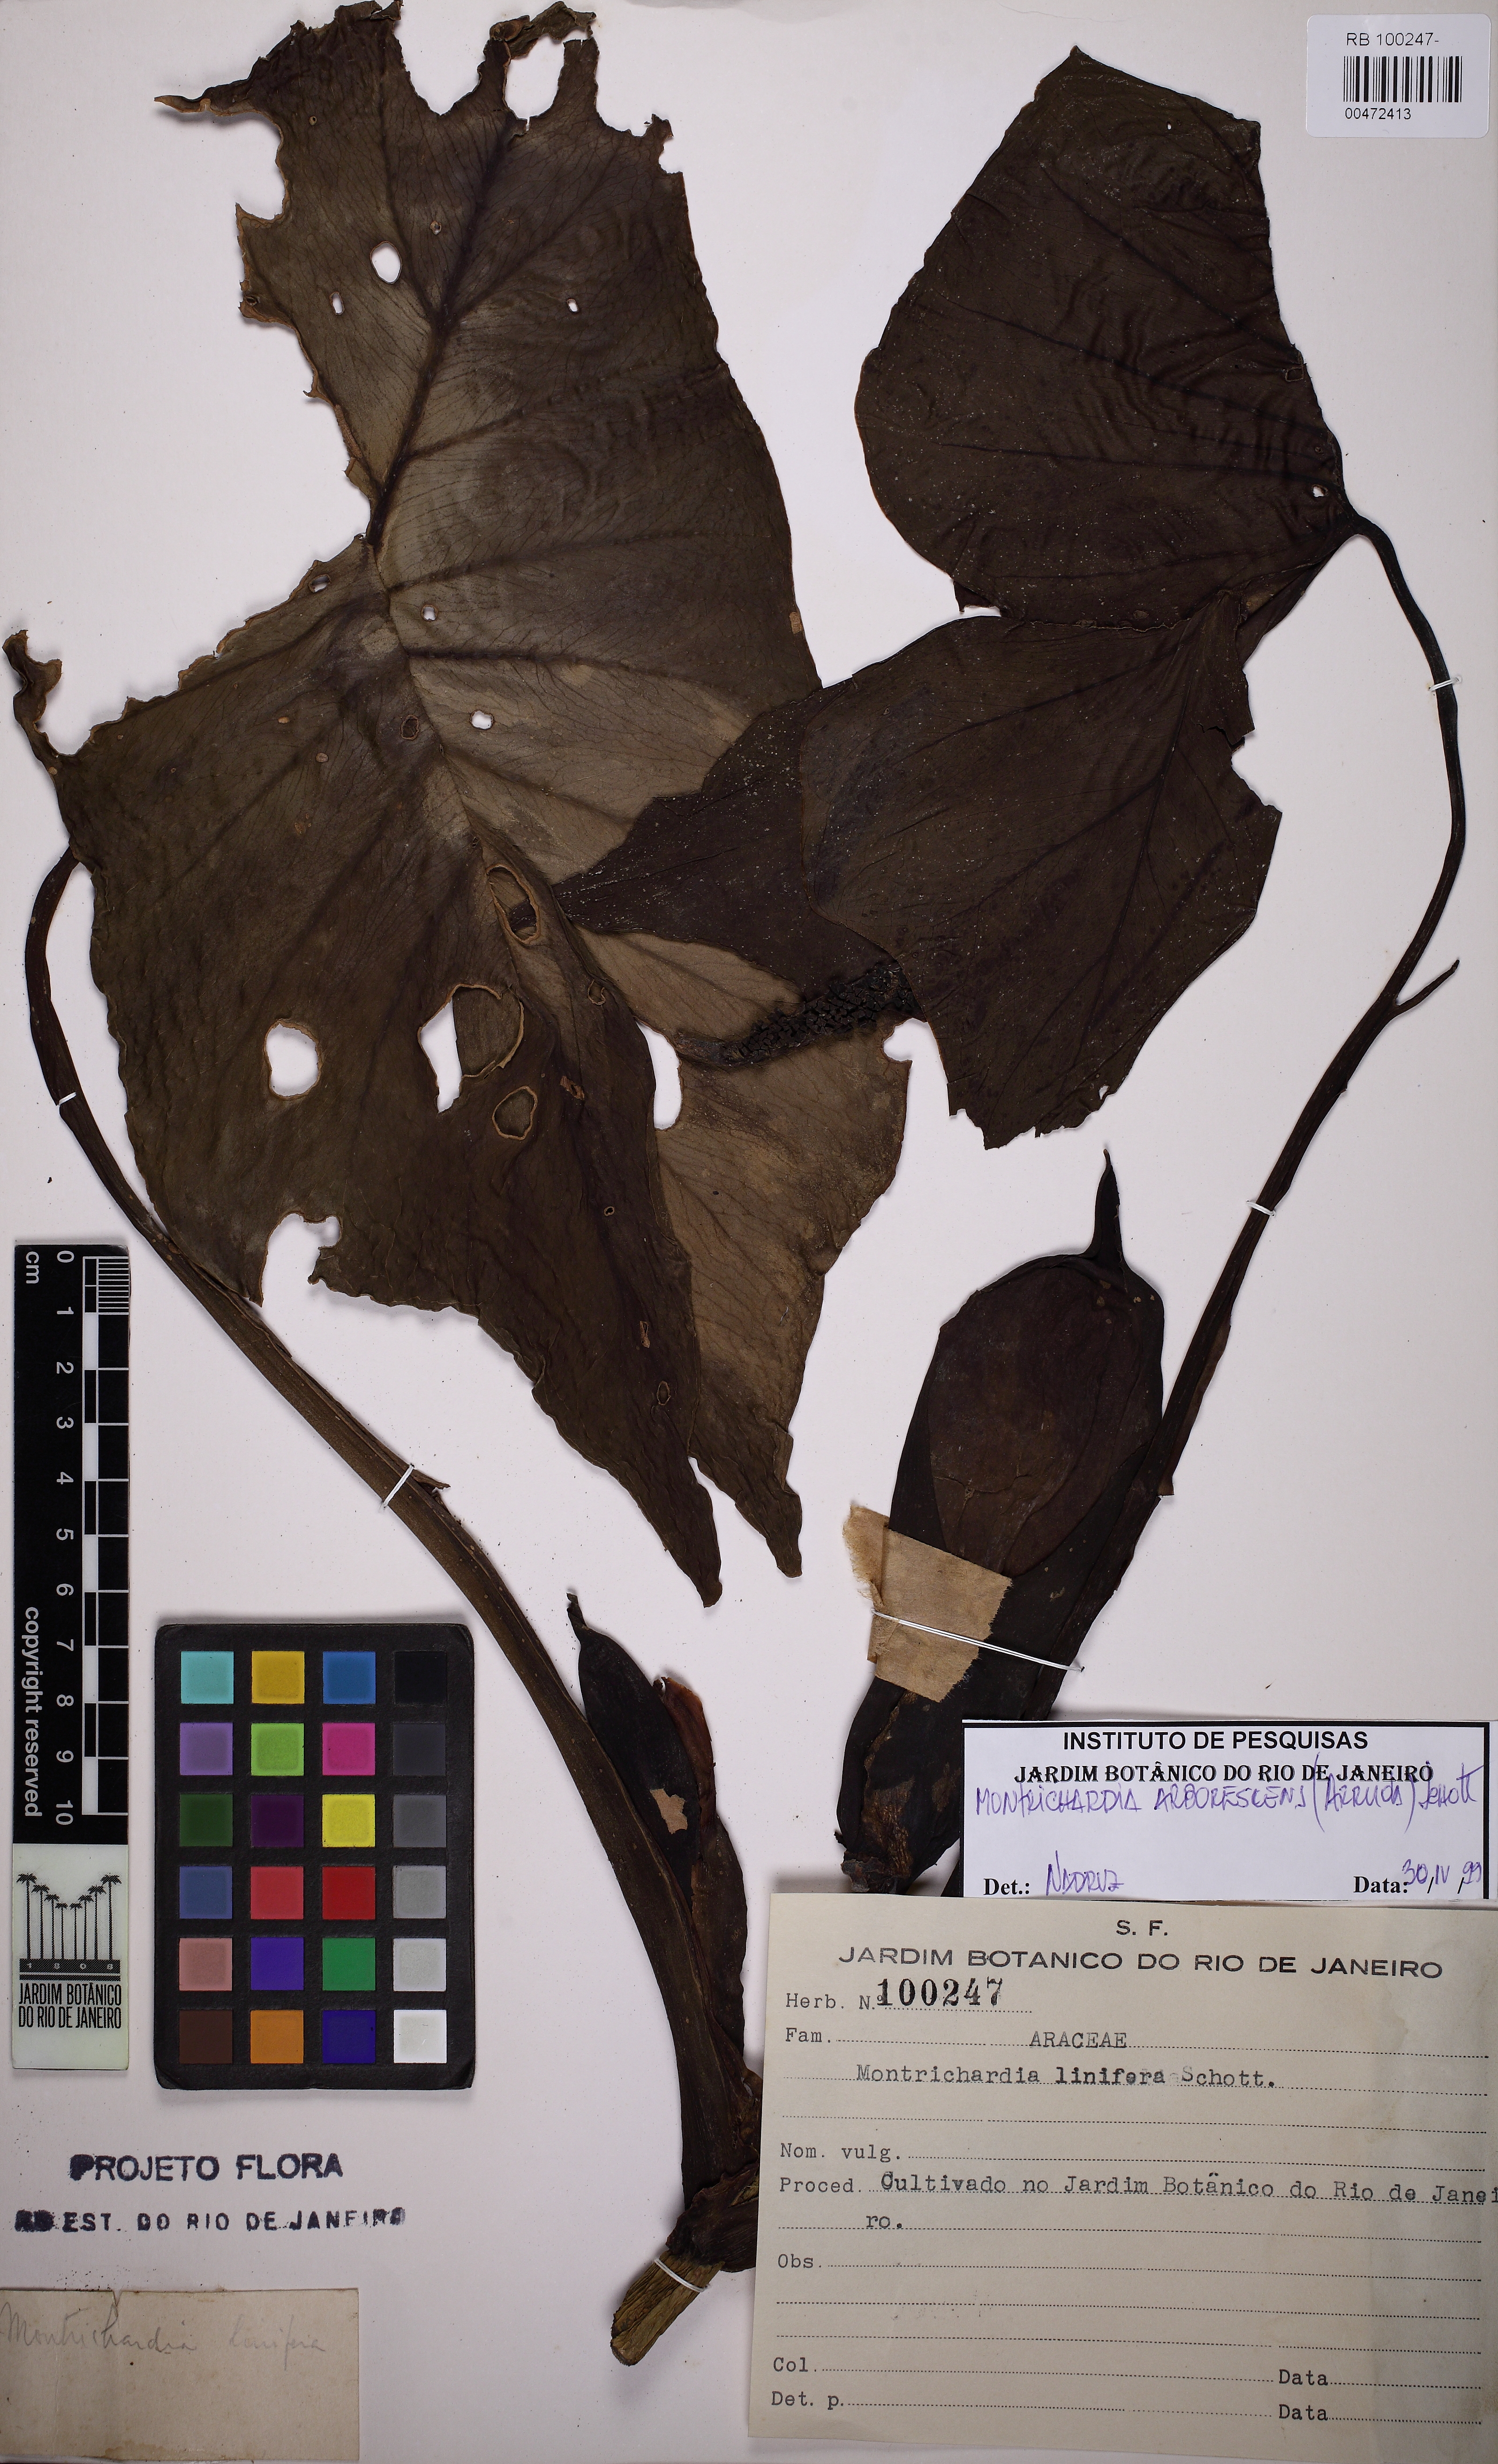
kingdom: Plantae
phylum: Tracheophyta
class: Liliopsida
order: Alismatales
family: Araceae
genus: Montrichardia
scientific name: Montrichardia arborescens
